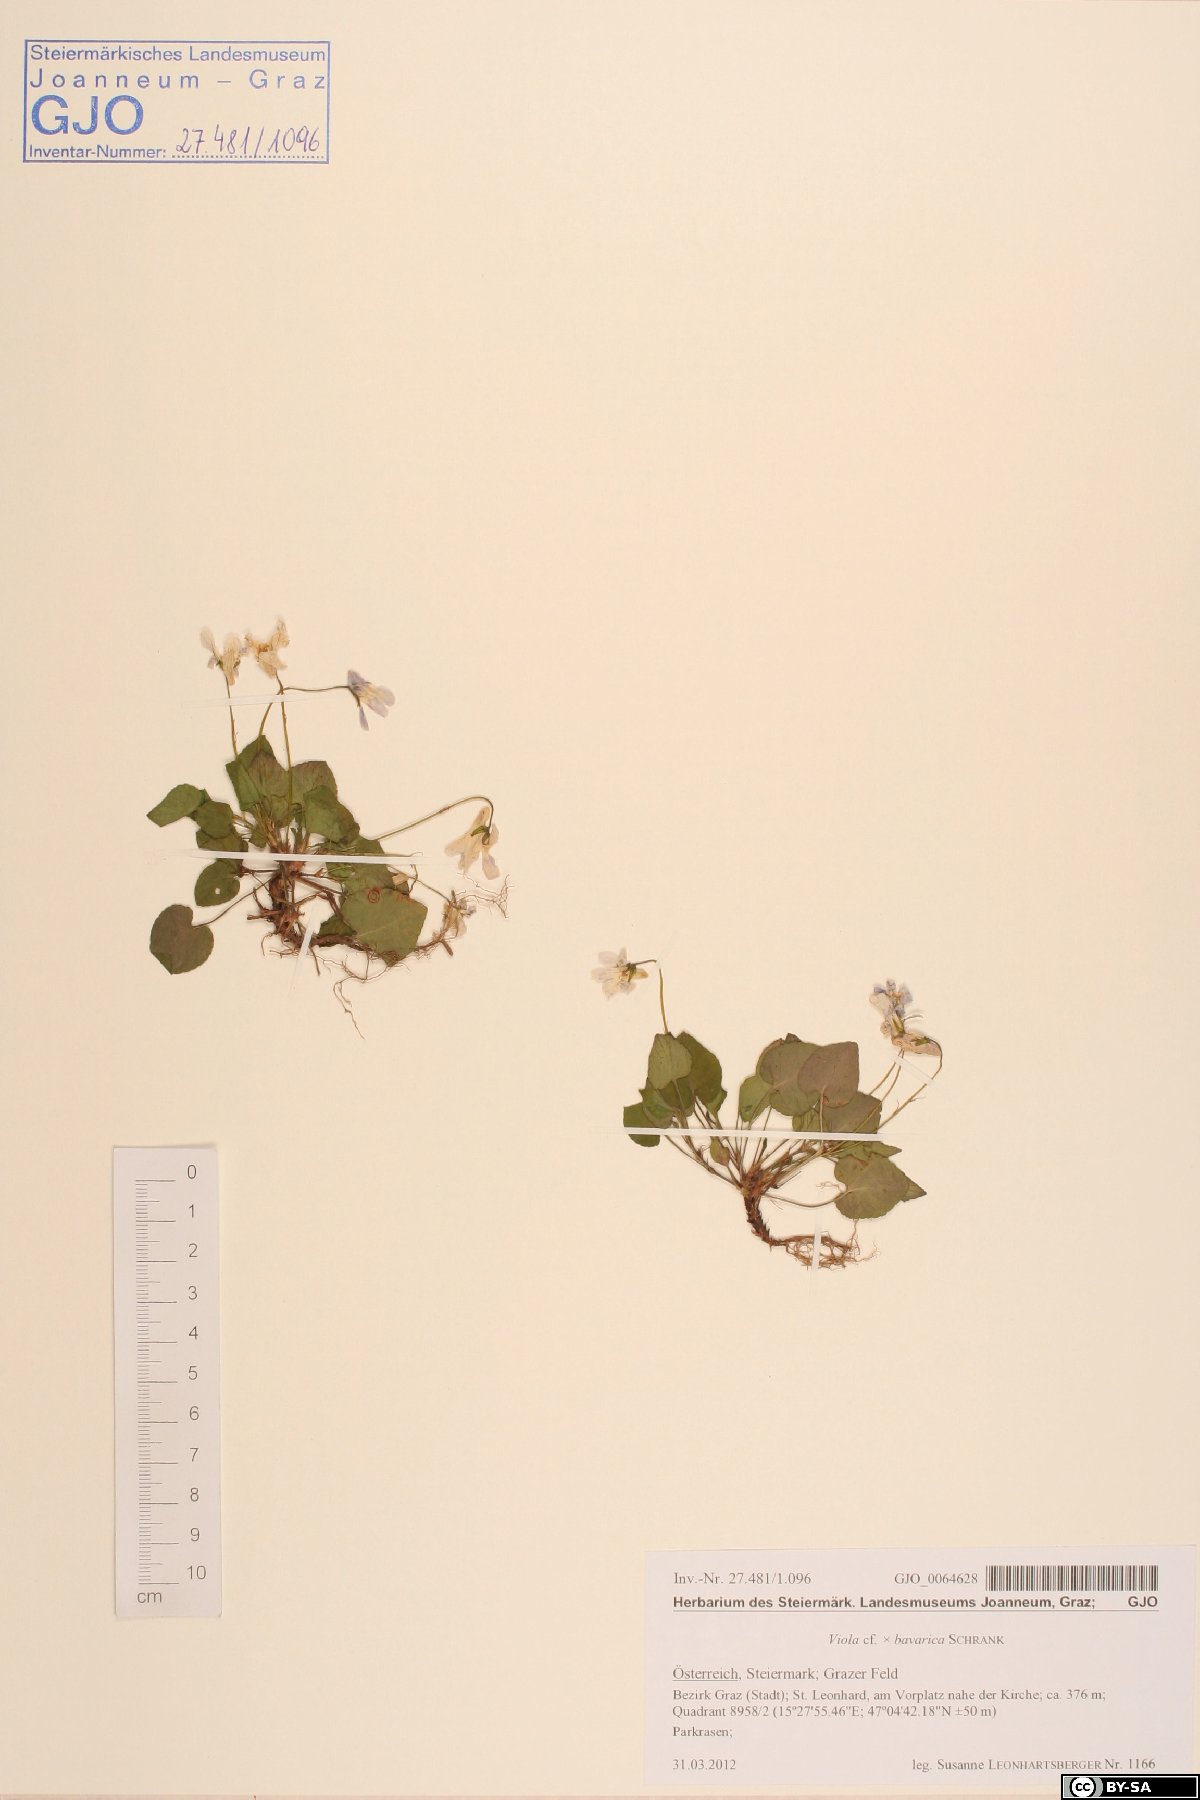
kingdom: Plantae
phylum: Tracheophyta
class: Magnoliopsida
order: Malpighiales
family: Violaceae
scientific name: Violaceae
